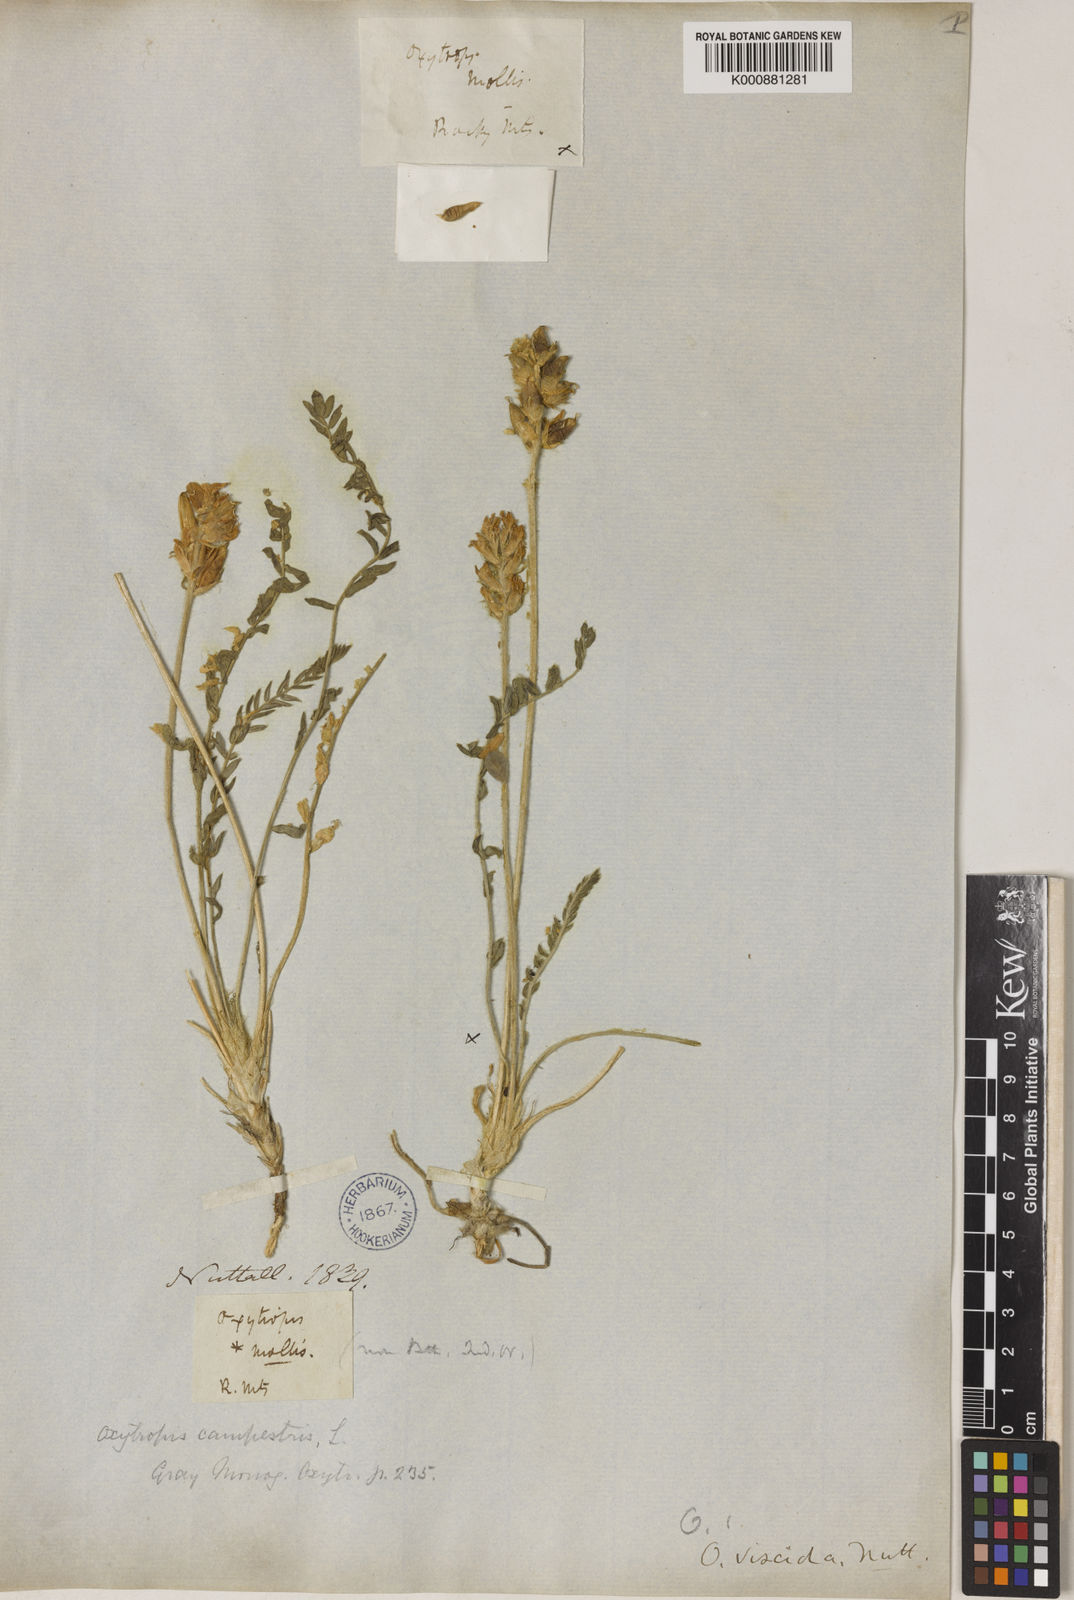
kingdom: Plantae
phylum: Tracheophyta
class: Magnoliopsida
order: Fabales
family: Fabaceae
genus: Oxytropis
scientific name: Oxytropis
